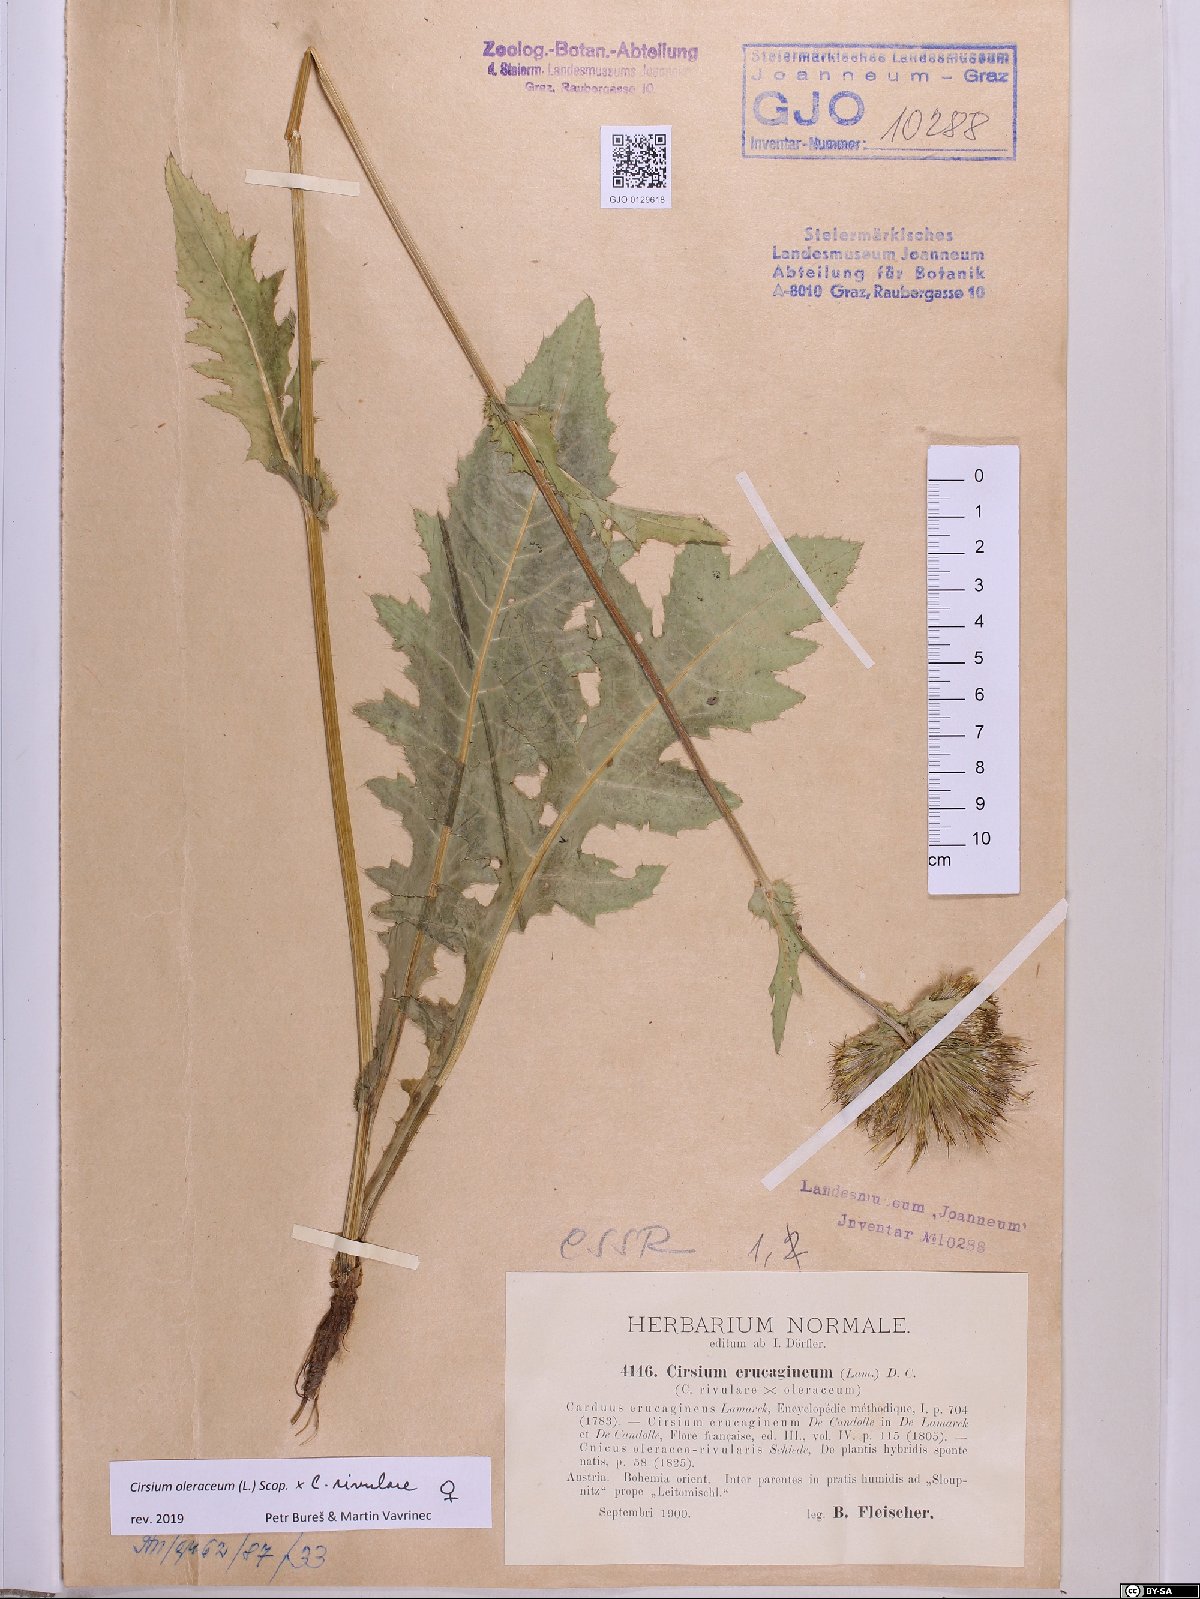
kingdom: Plantae
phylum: Tracheophyta
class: Magnoliopsida
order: Asterales
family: Asteraceae
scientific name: Asteraceae
